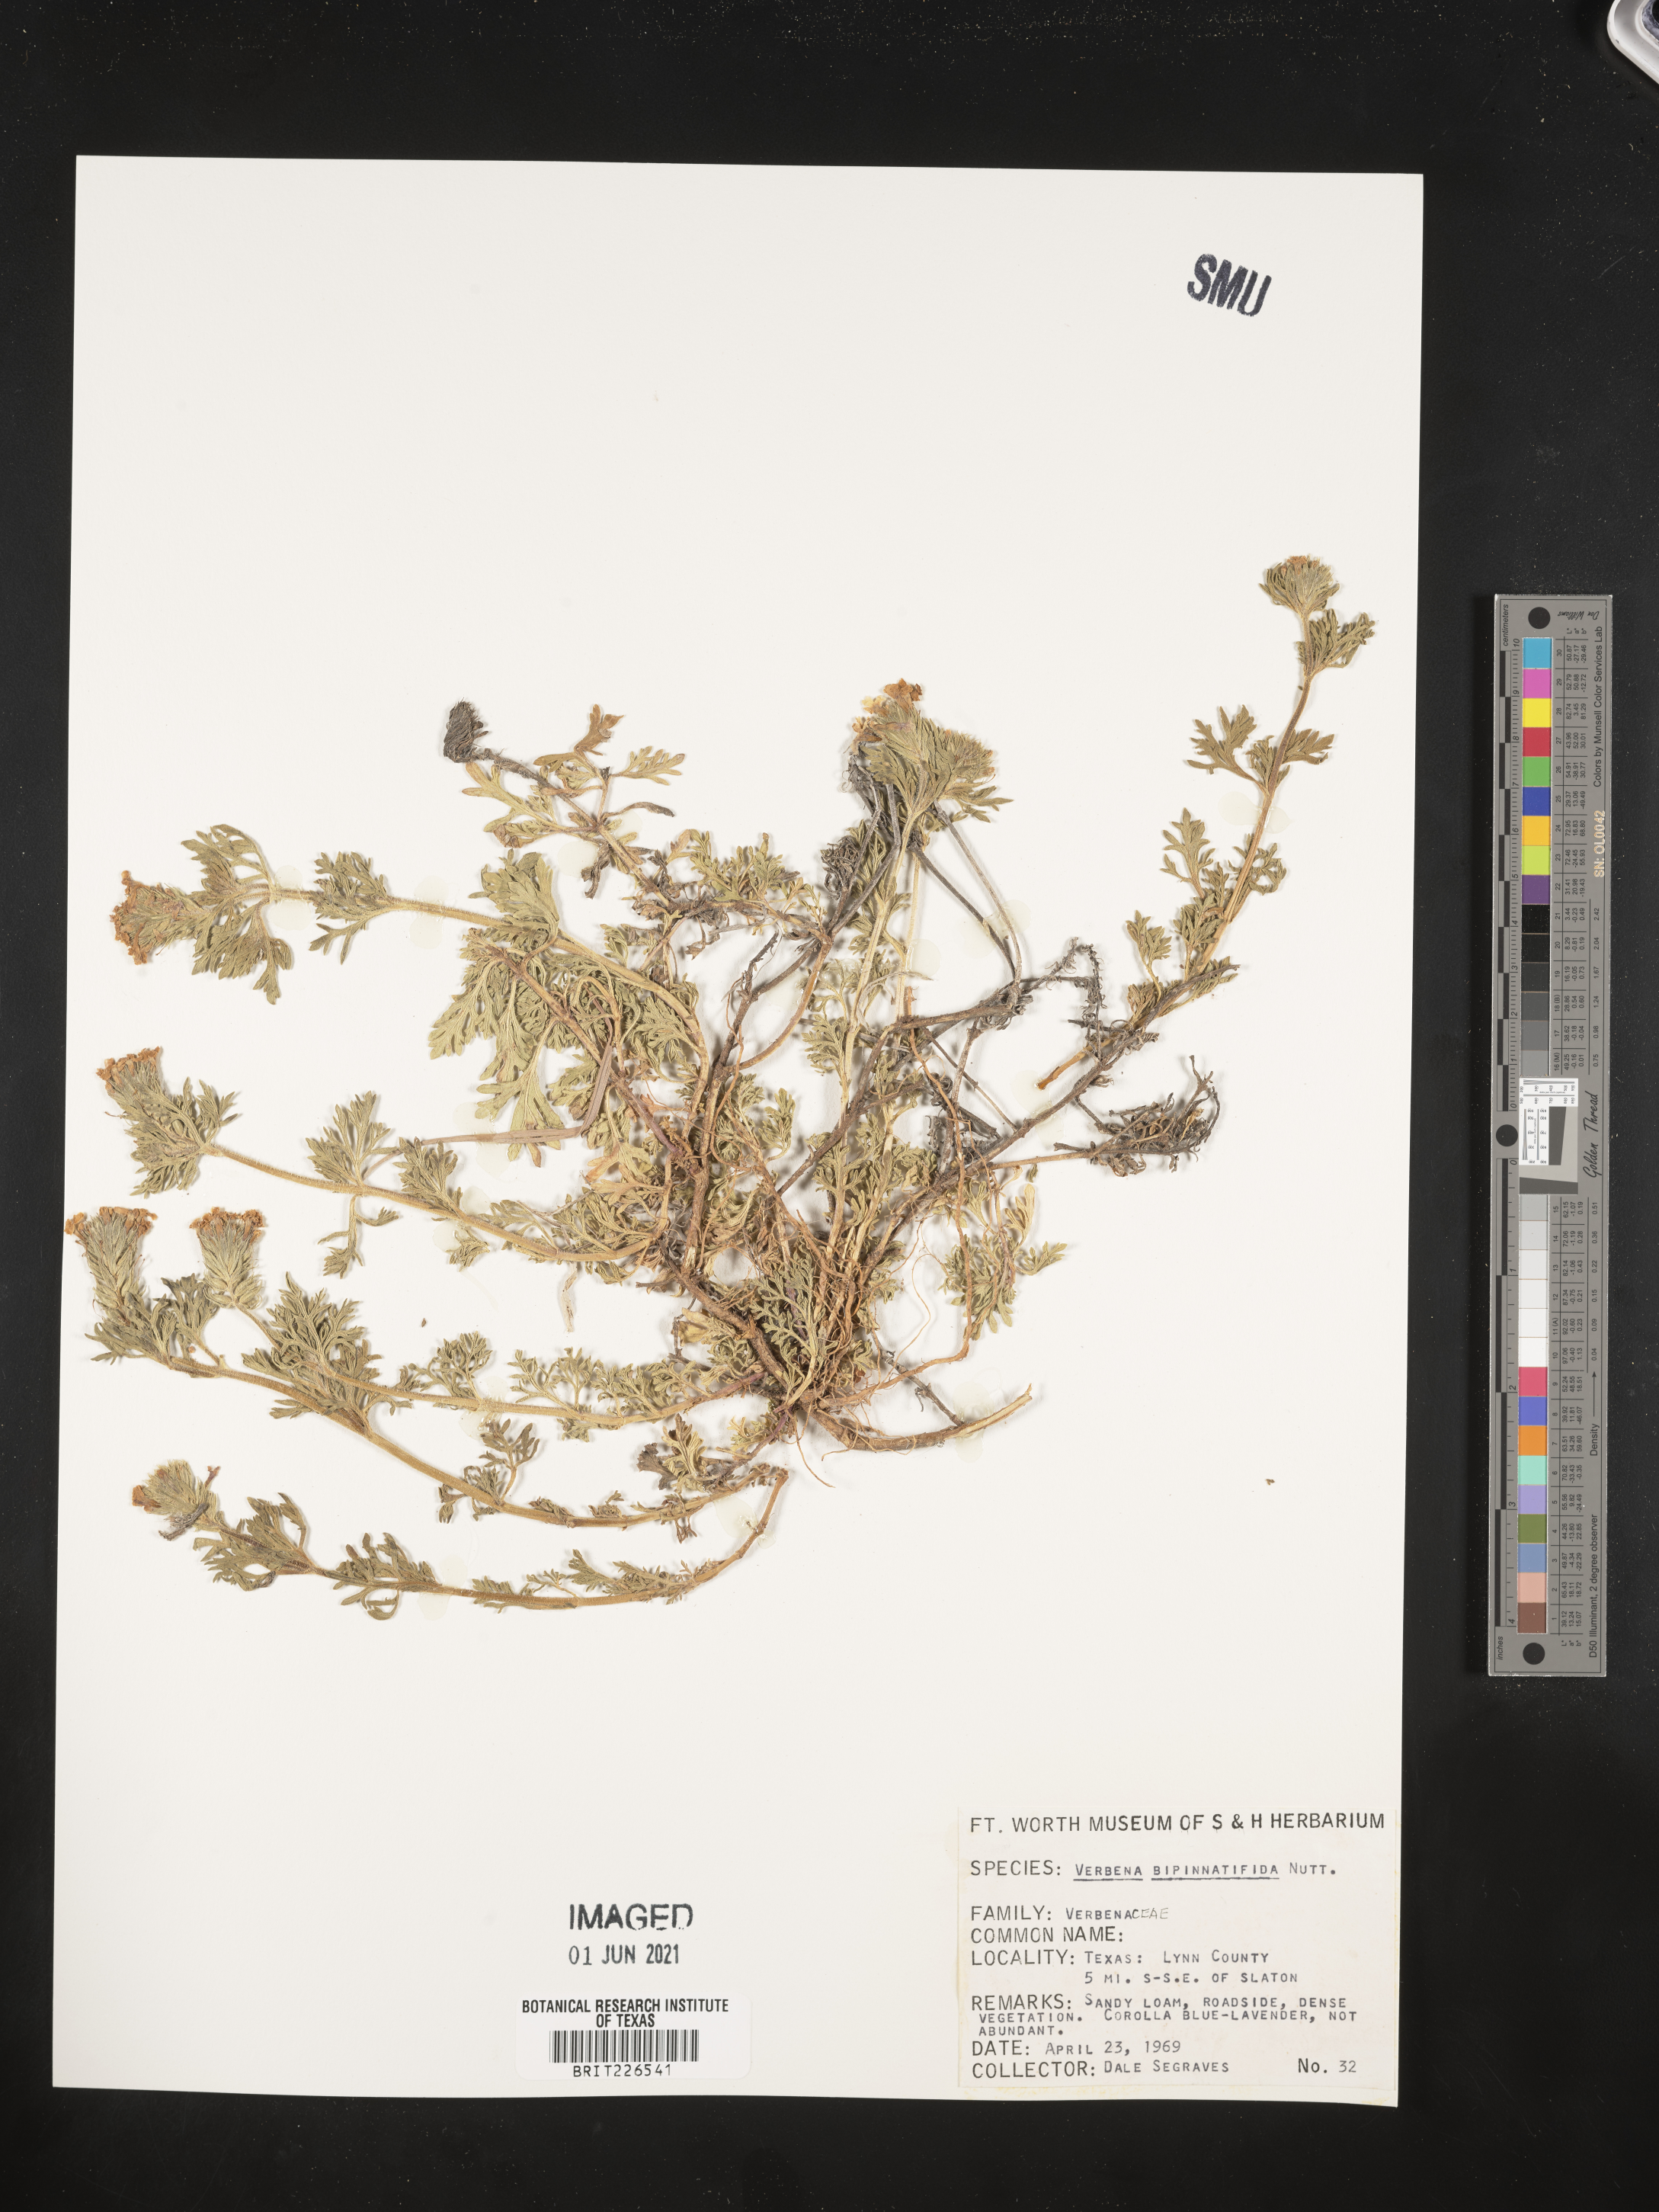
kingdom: Plantae
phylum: Tracheophyta
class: Magnoliopsida
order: Lamiales
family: Verbenaceae
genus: Verbena
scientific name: Verbena bipinnatifida
